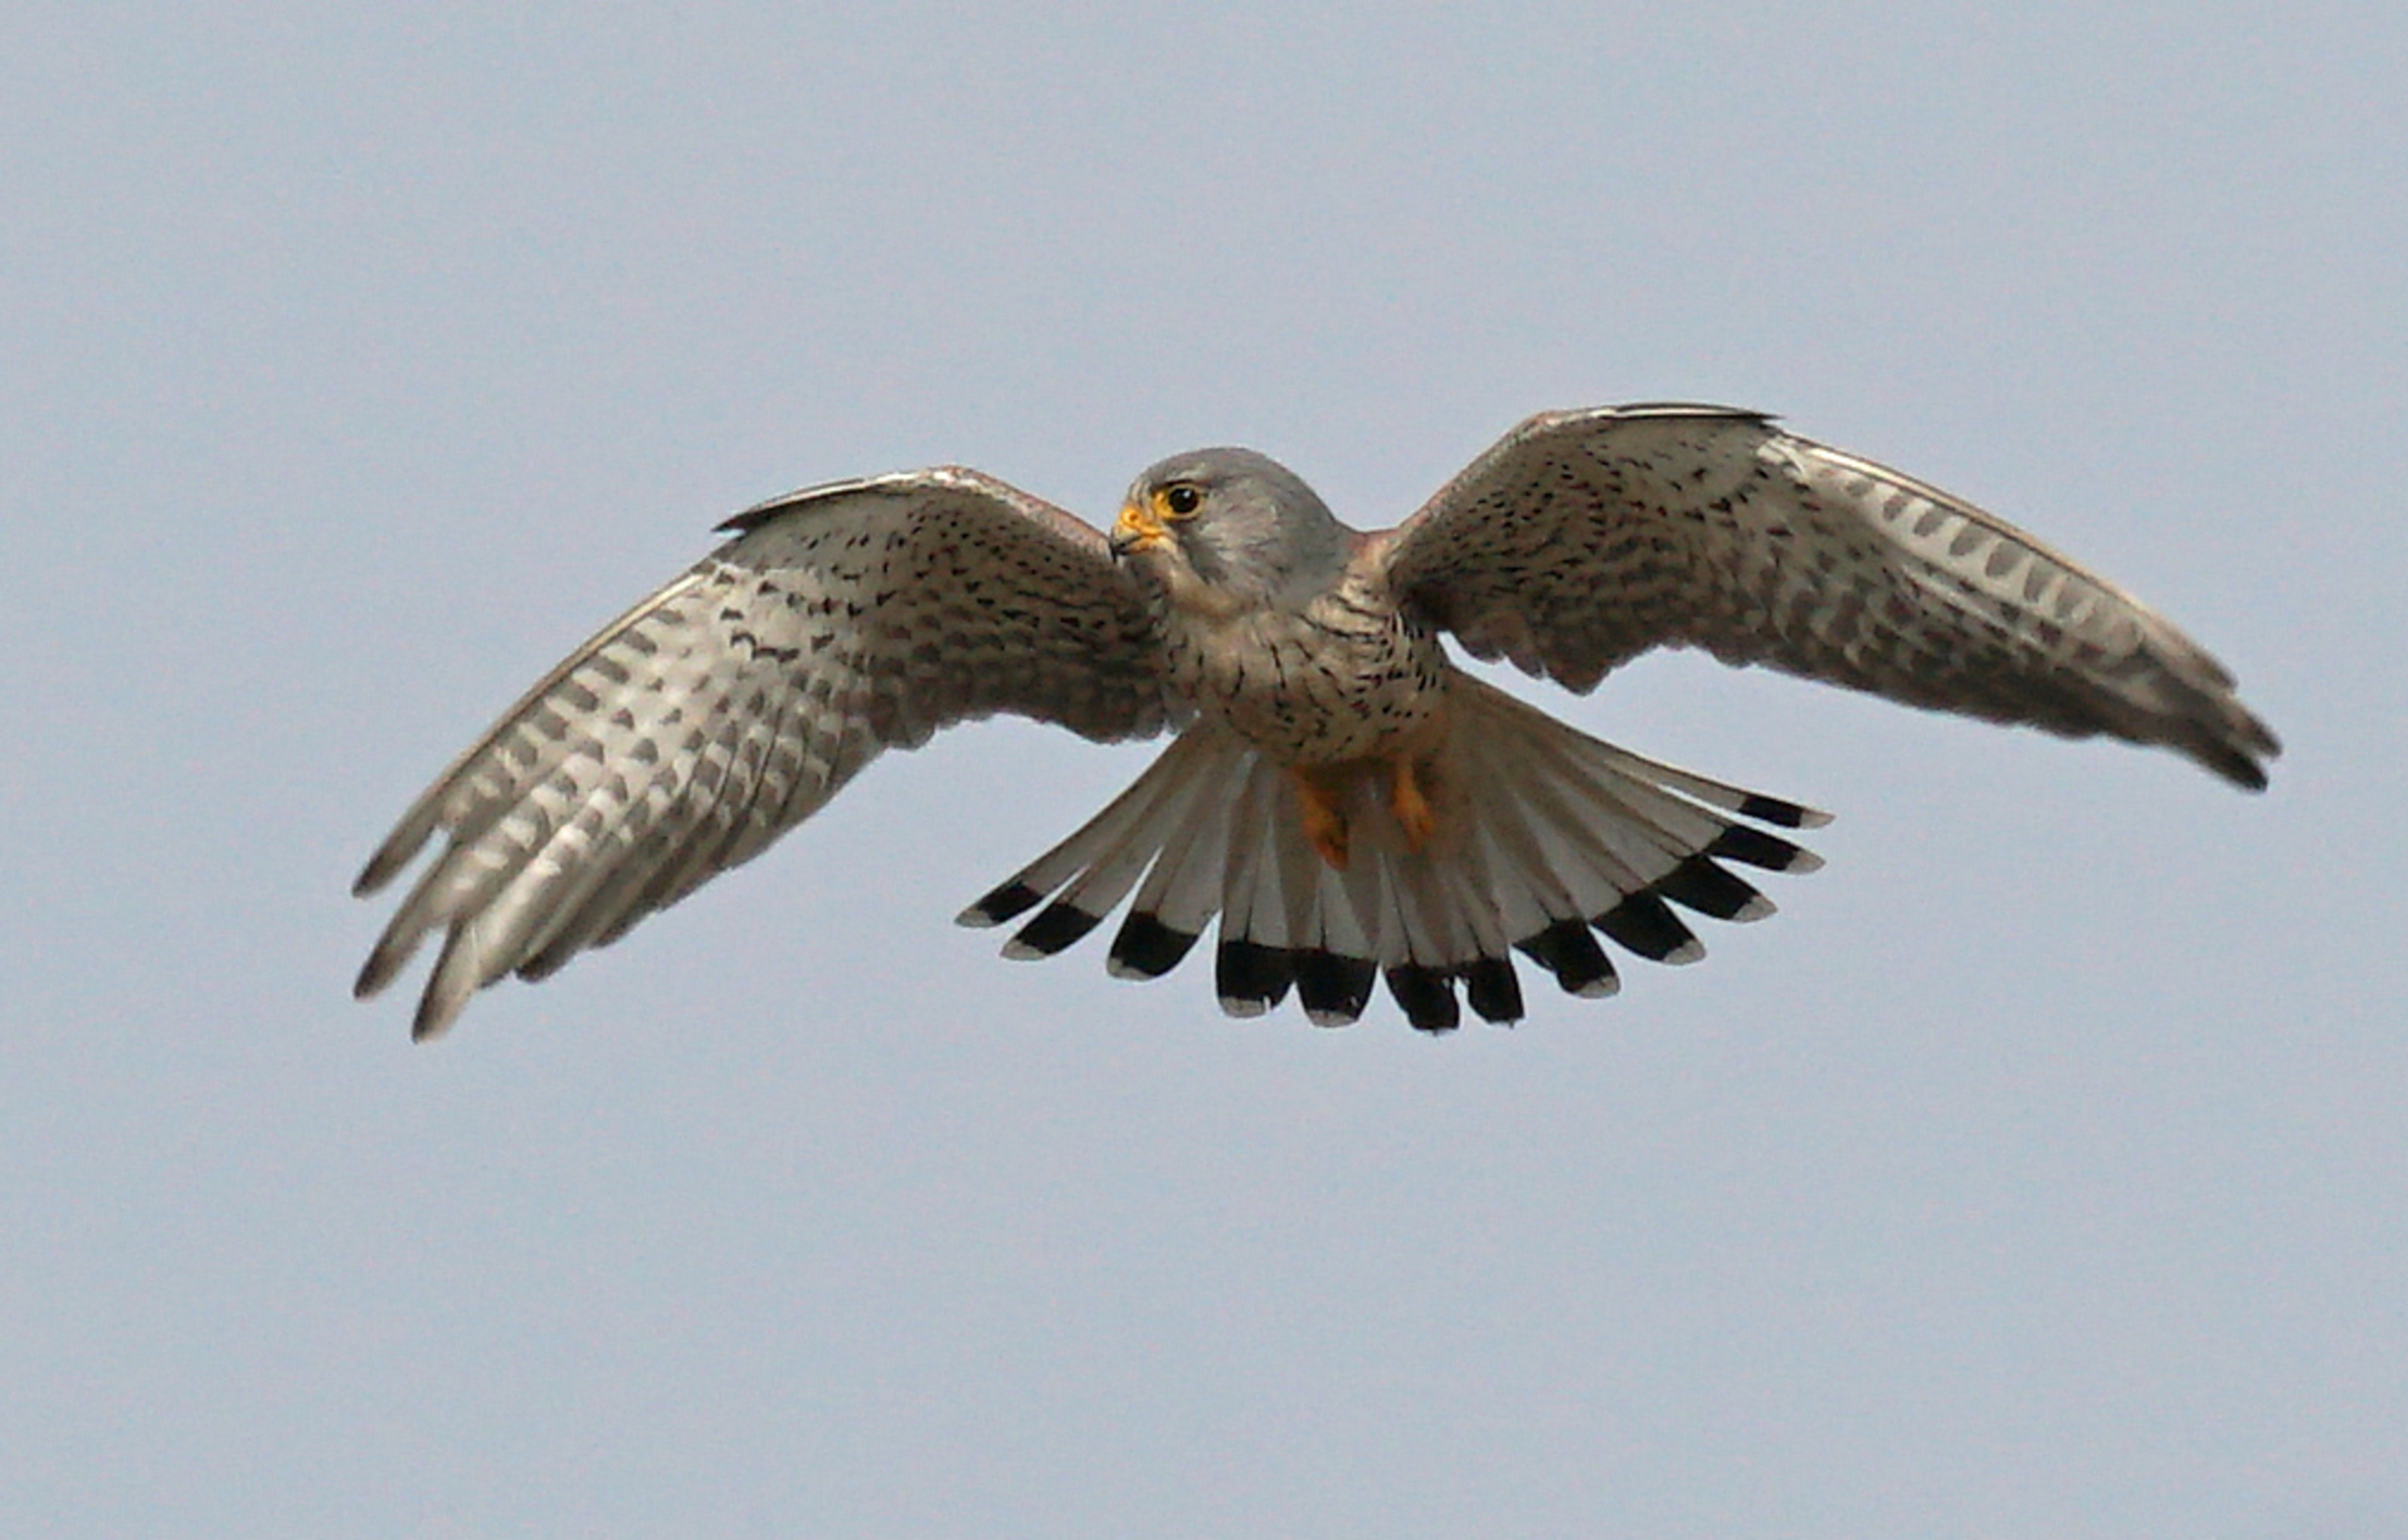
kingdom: Animalia
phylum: Chordata
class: Aves
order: Falconiformes
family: Falconidae
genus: Falco
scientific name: Falco tinnunculus
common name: Tårnfalk
